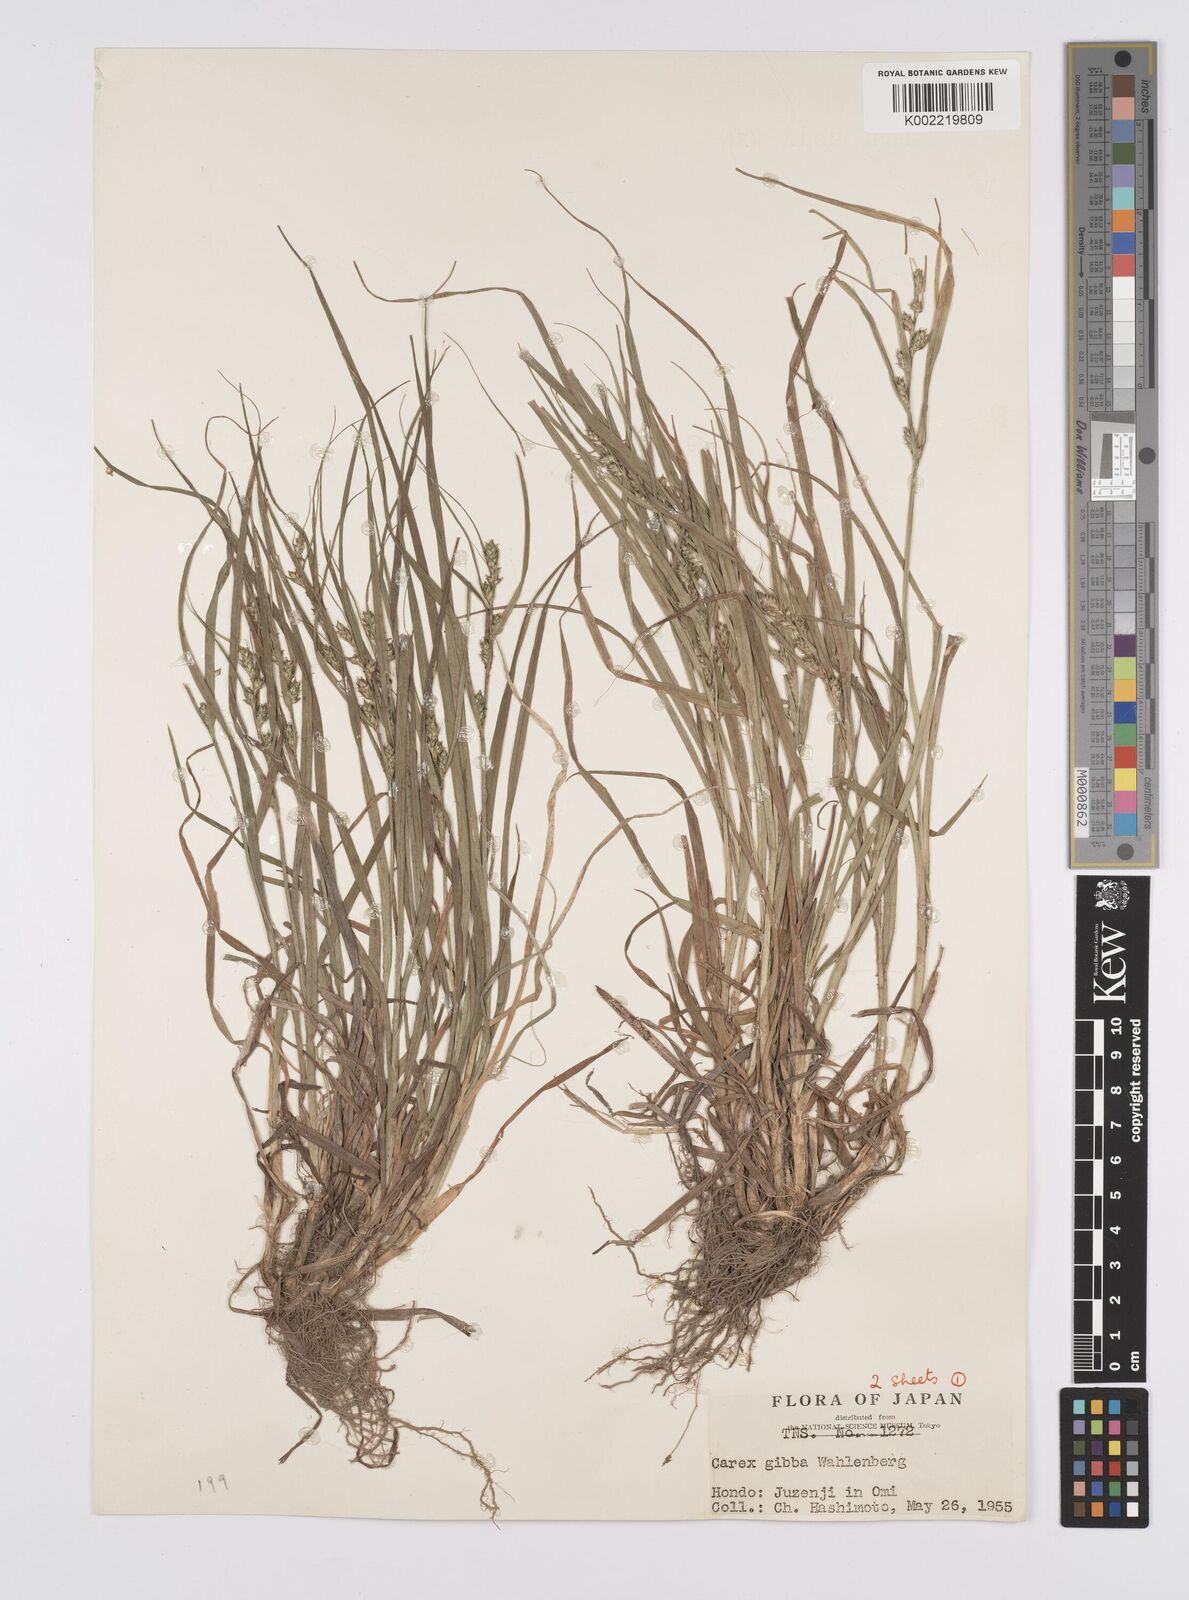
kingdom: Plantae
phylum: Tracheophyta
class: Liliopsida
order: Poales
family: Cyperaceae
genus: Carex
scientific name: Carex gibba
